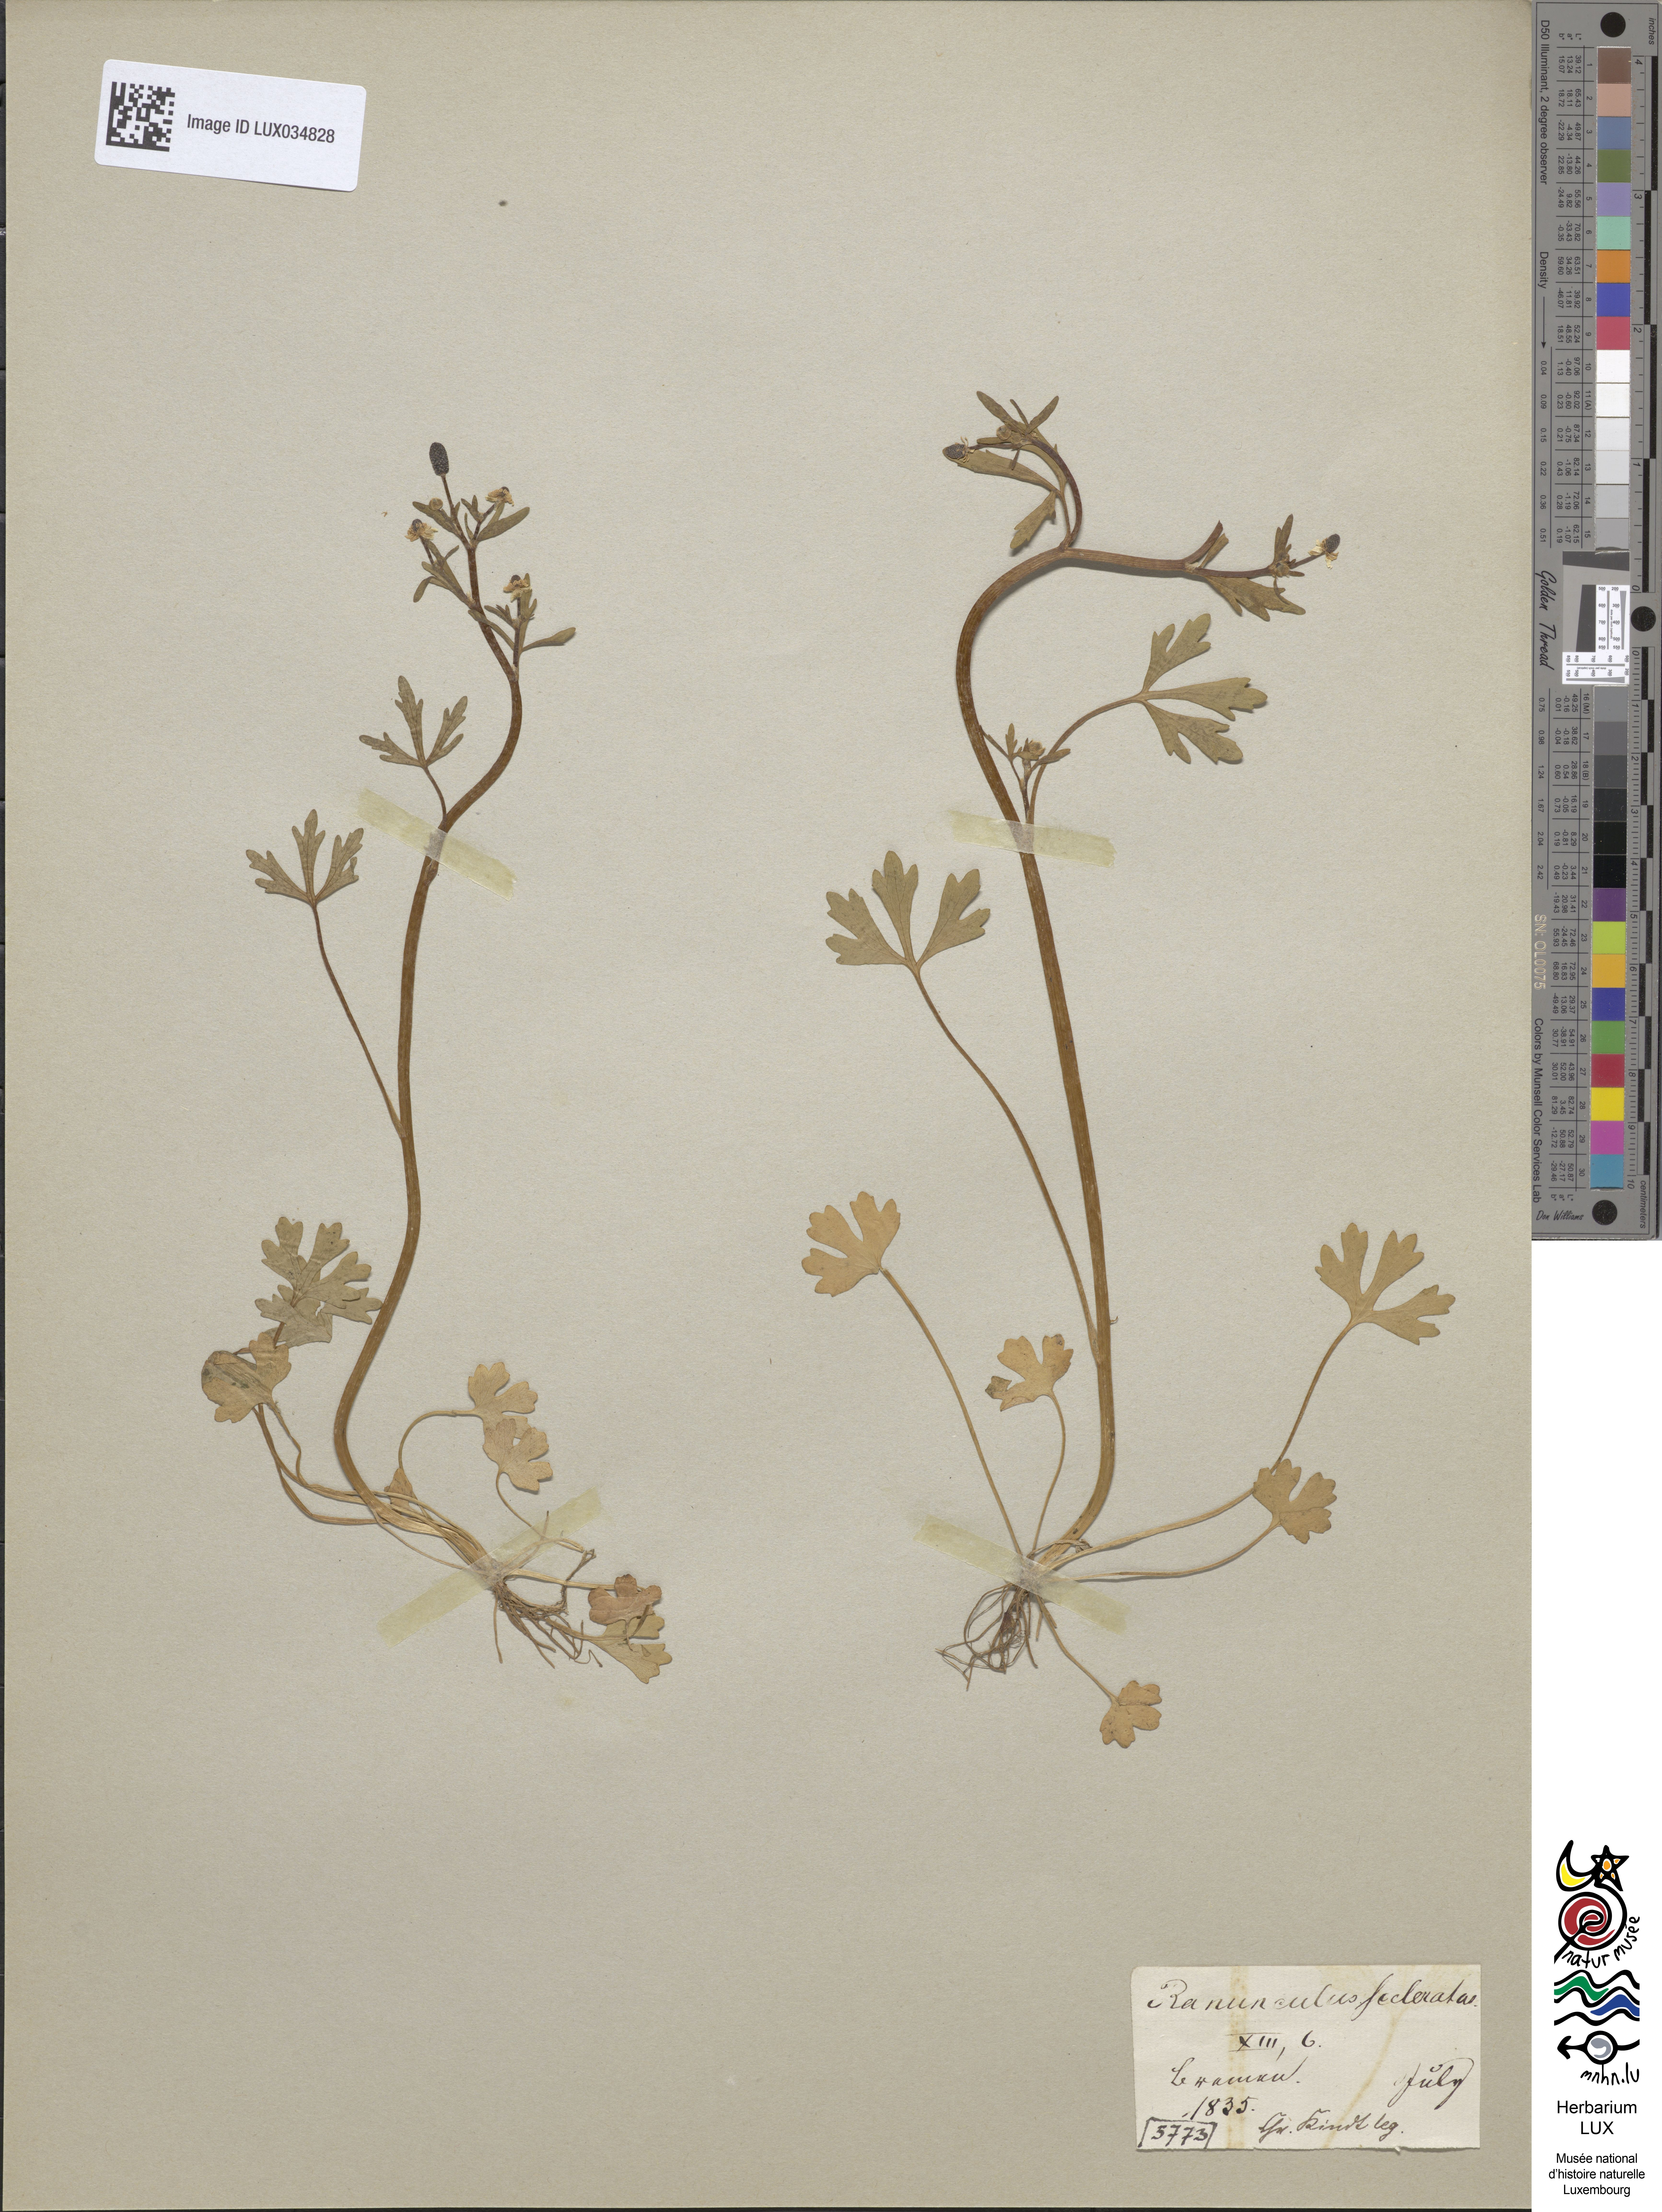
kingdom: Plantae
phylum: Tracheophyta
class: Magnoliopsida
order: Ranunculales
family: Ranunculaceae
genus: Ranunculus
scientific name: Ranunculus sceleratus
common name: Celery-leaved buttercup
